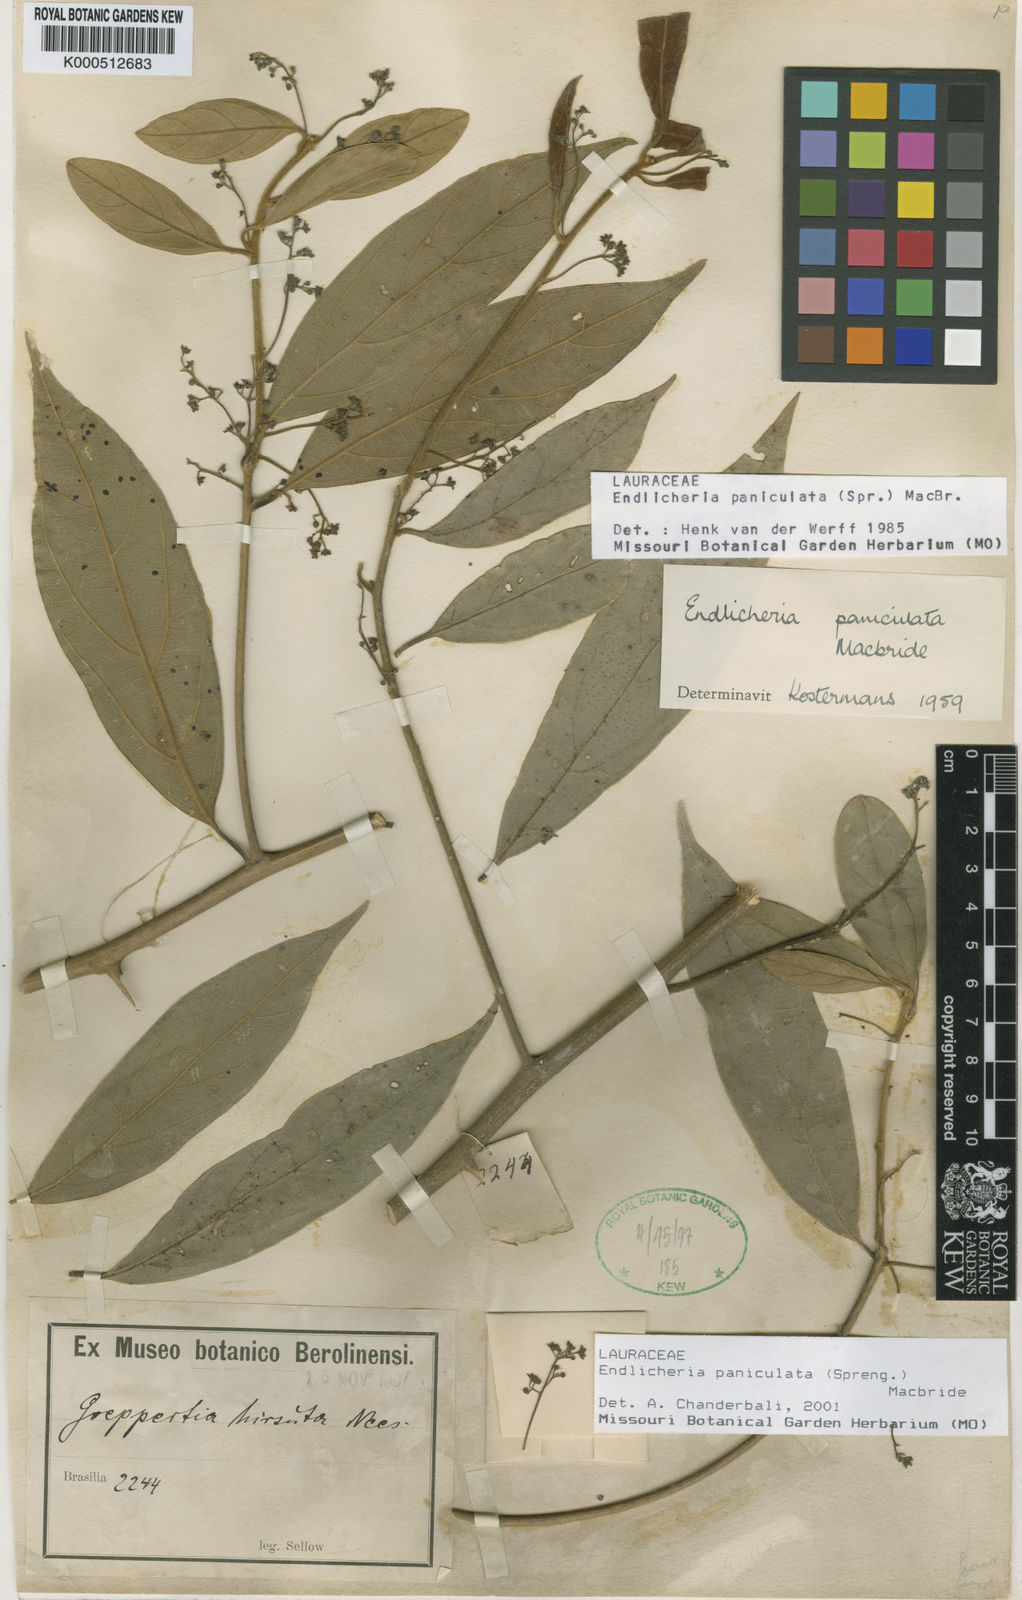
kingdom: Plantae
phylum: Tracheophyta
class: Magnoliopsida
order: Laurales
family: Lauraceae
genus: Endlicheria
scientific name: Endlicheria paniculata
